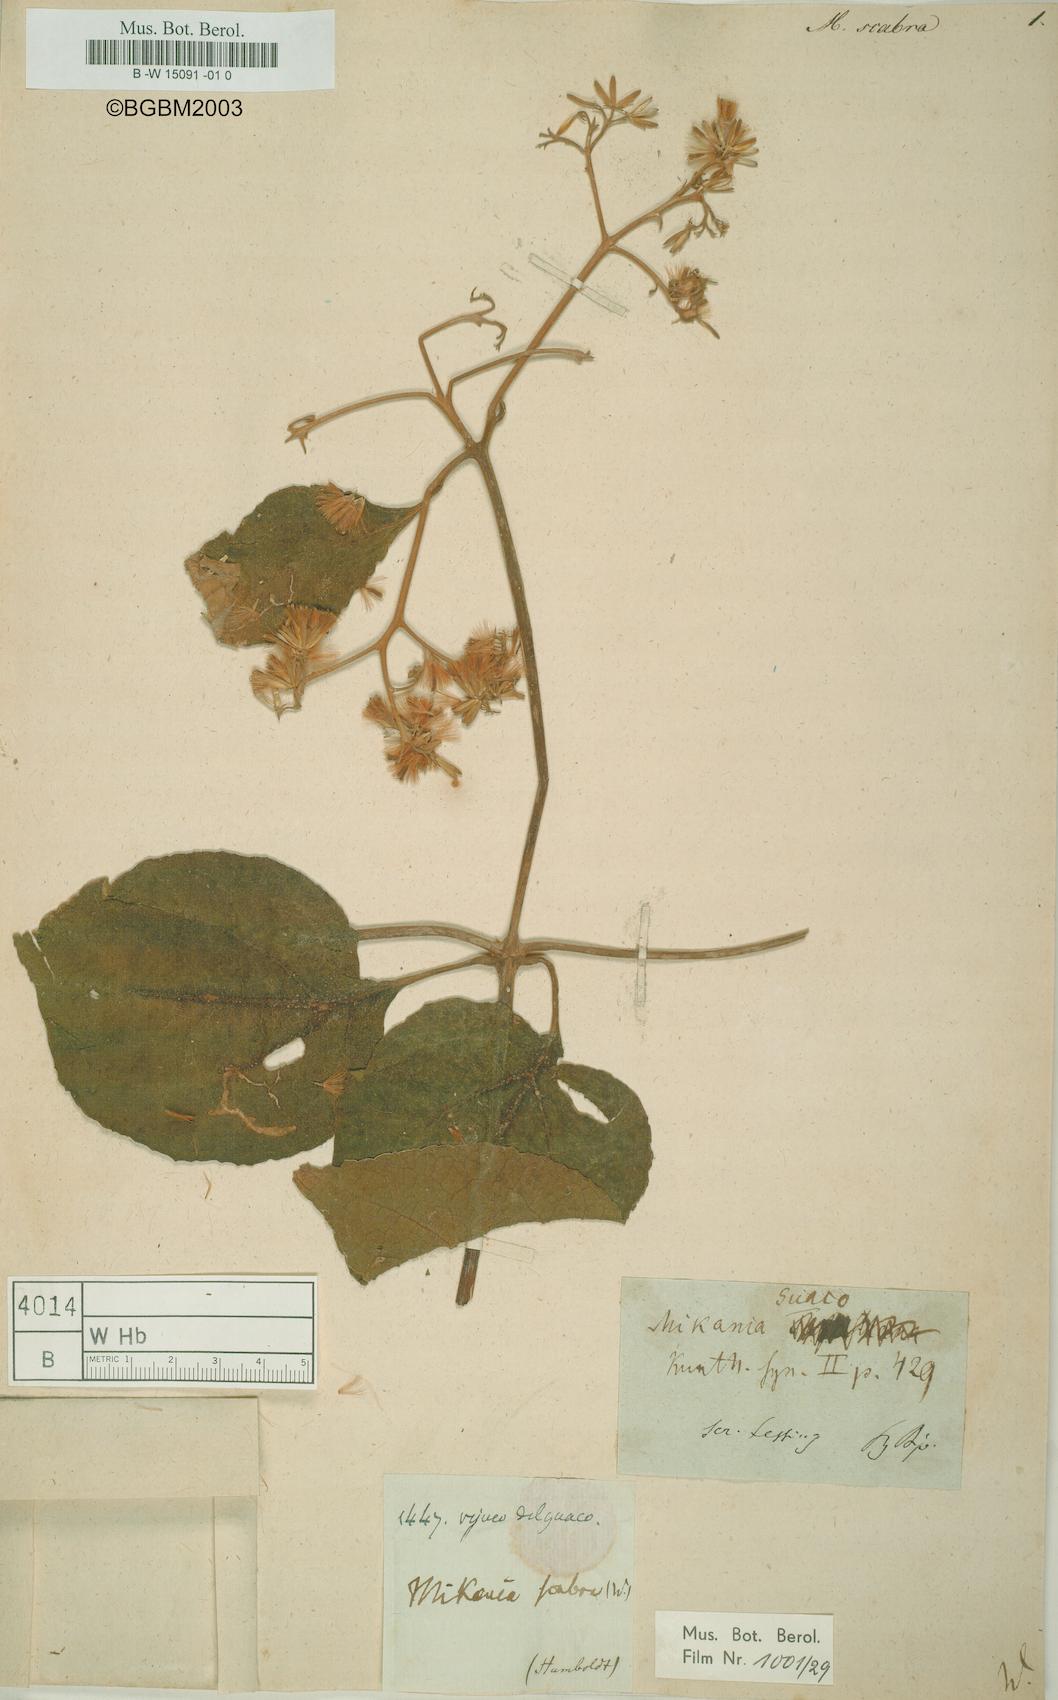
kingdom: Plantae
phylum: Tracheophyta
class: Magnoliopsida
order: Asterales
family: Asteraceae
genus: Mikania
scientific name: Mikania psilostachya
